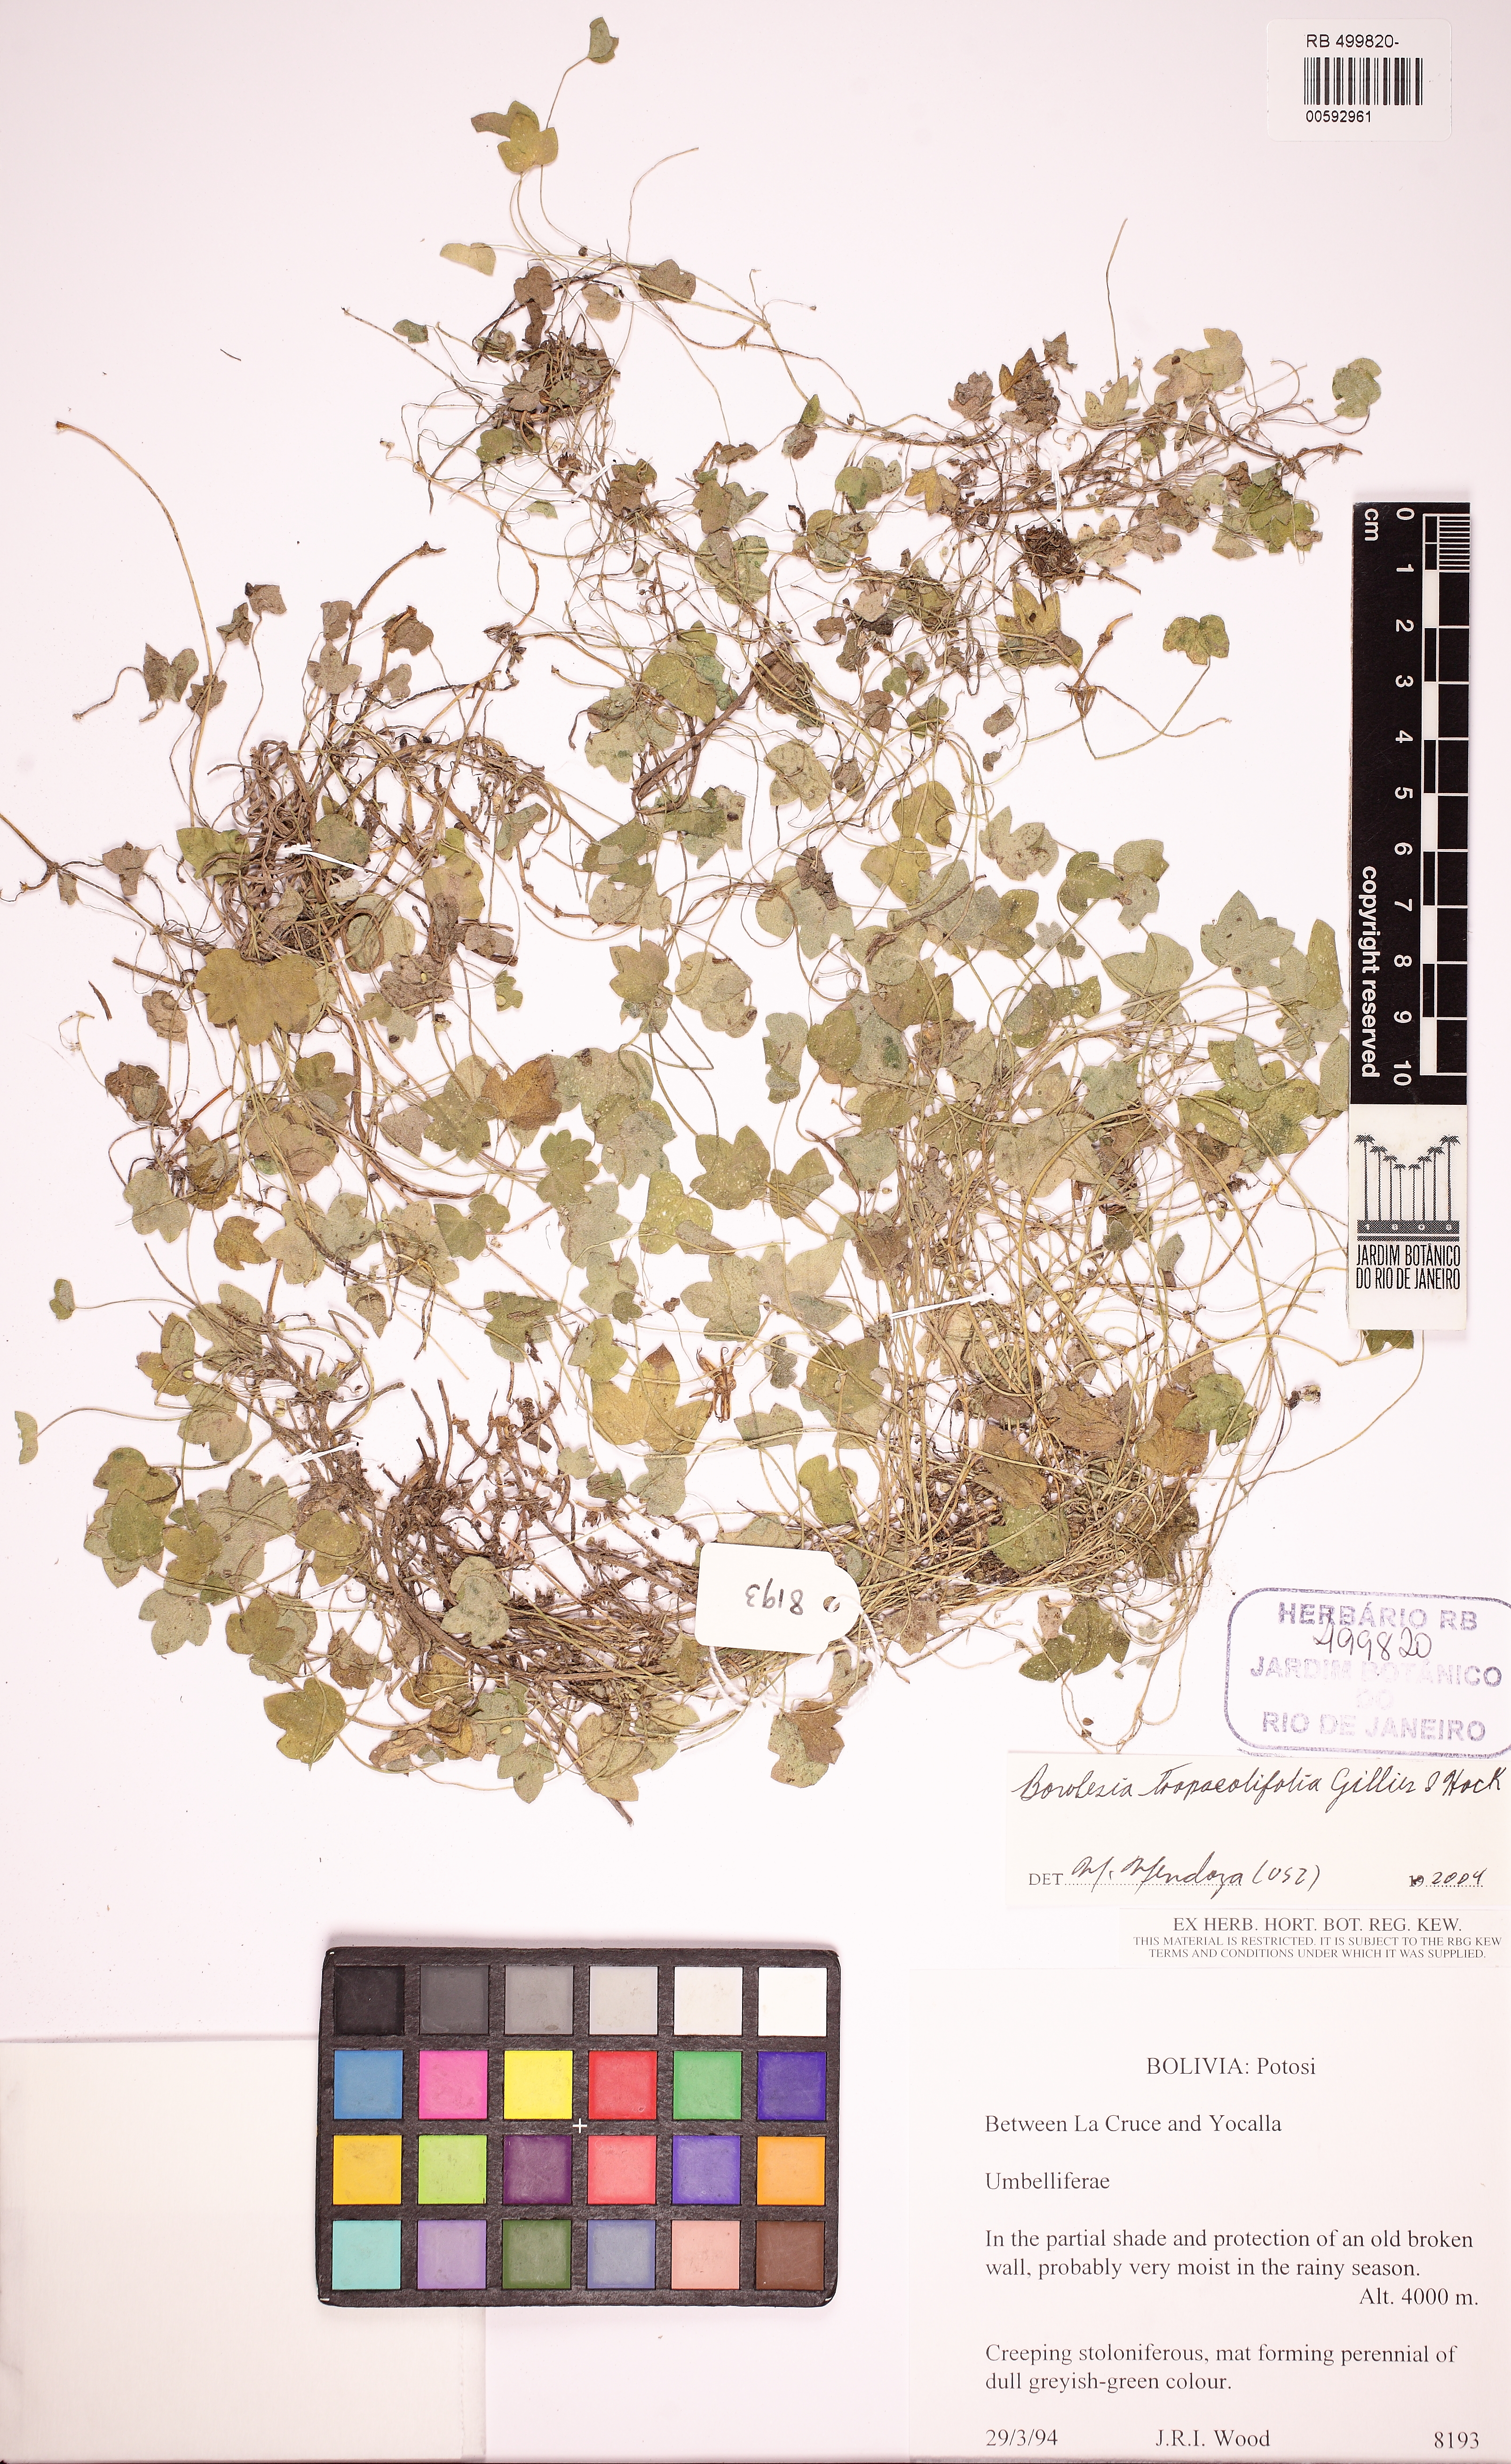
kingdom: Plantae
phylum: Tracheophyta
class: Magnoliopsida
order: Apiales
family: Apiaceae
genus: Bowlesia
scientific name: Bowlesia tropaeolifolia
